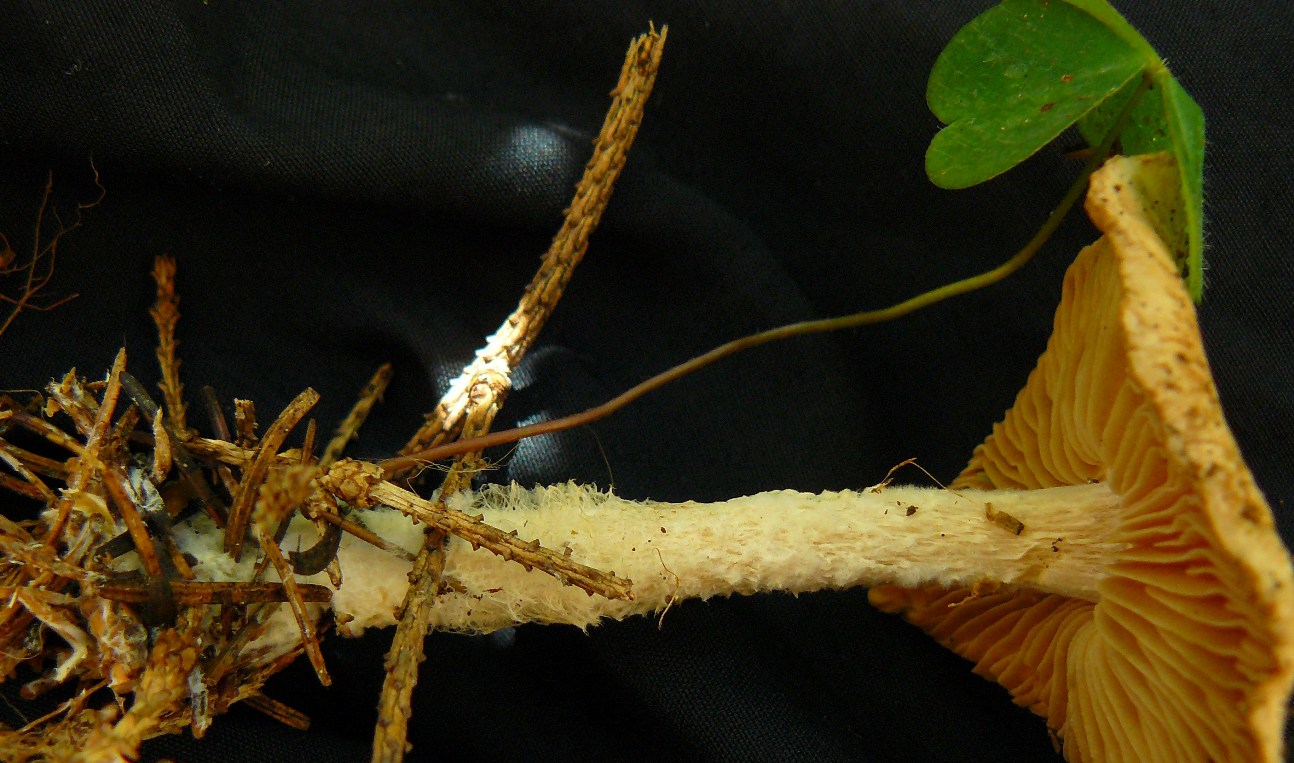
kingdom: Fungi
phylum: Basidiomycota
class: Agaricomycetes
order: Agaricales
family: Omphalotaceae
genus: Collybiopsis
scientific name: Collybiopsis peronata
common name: bestøvlet fladhat
